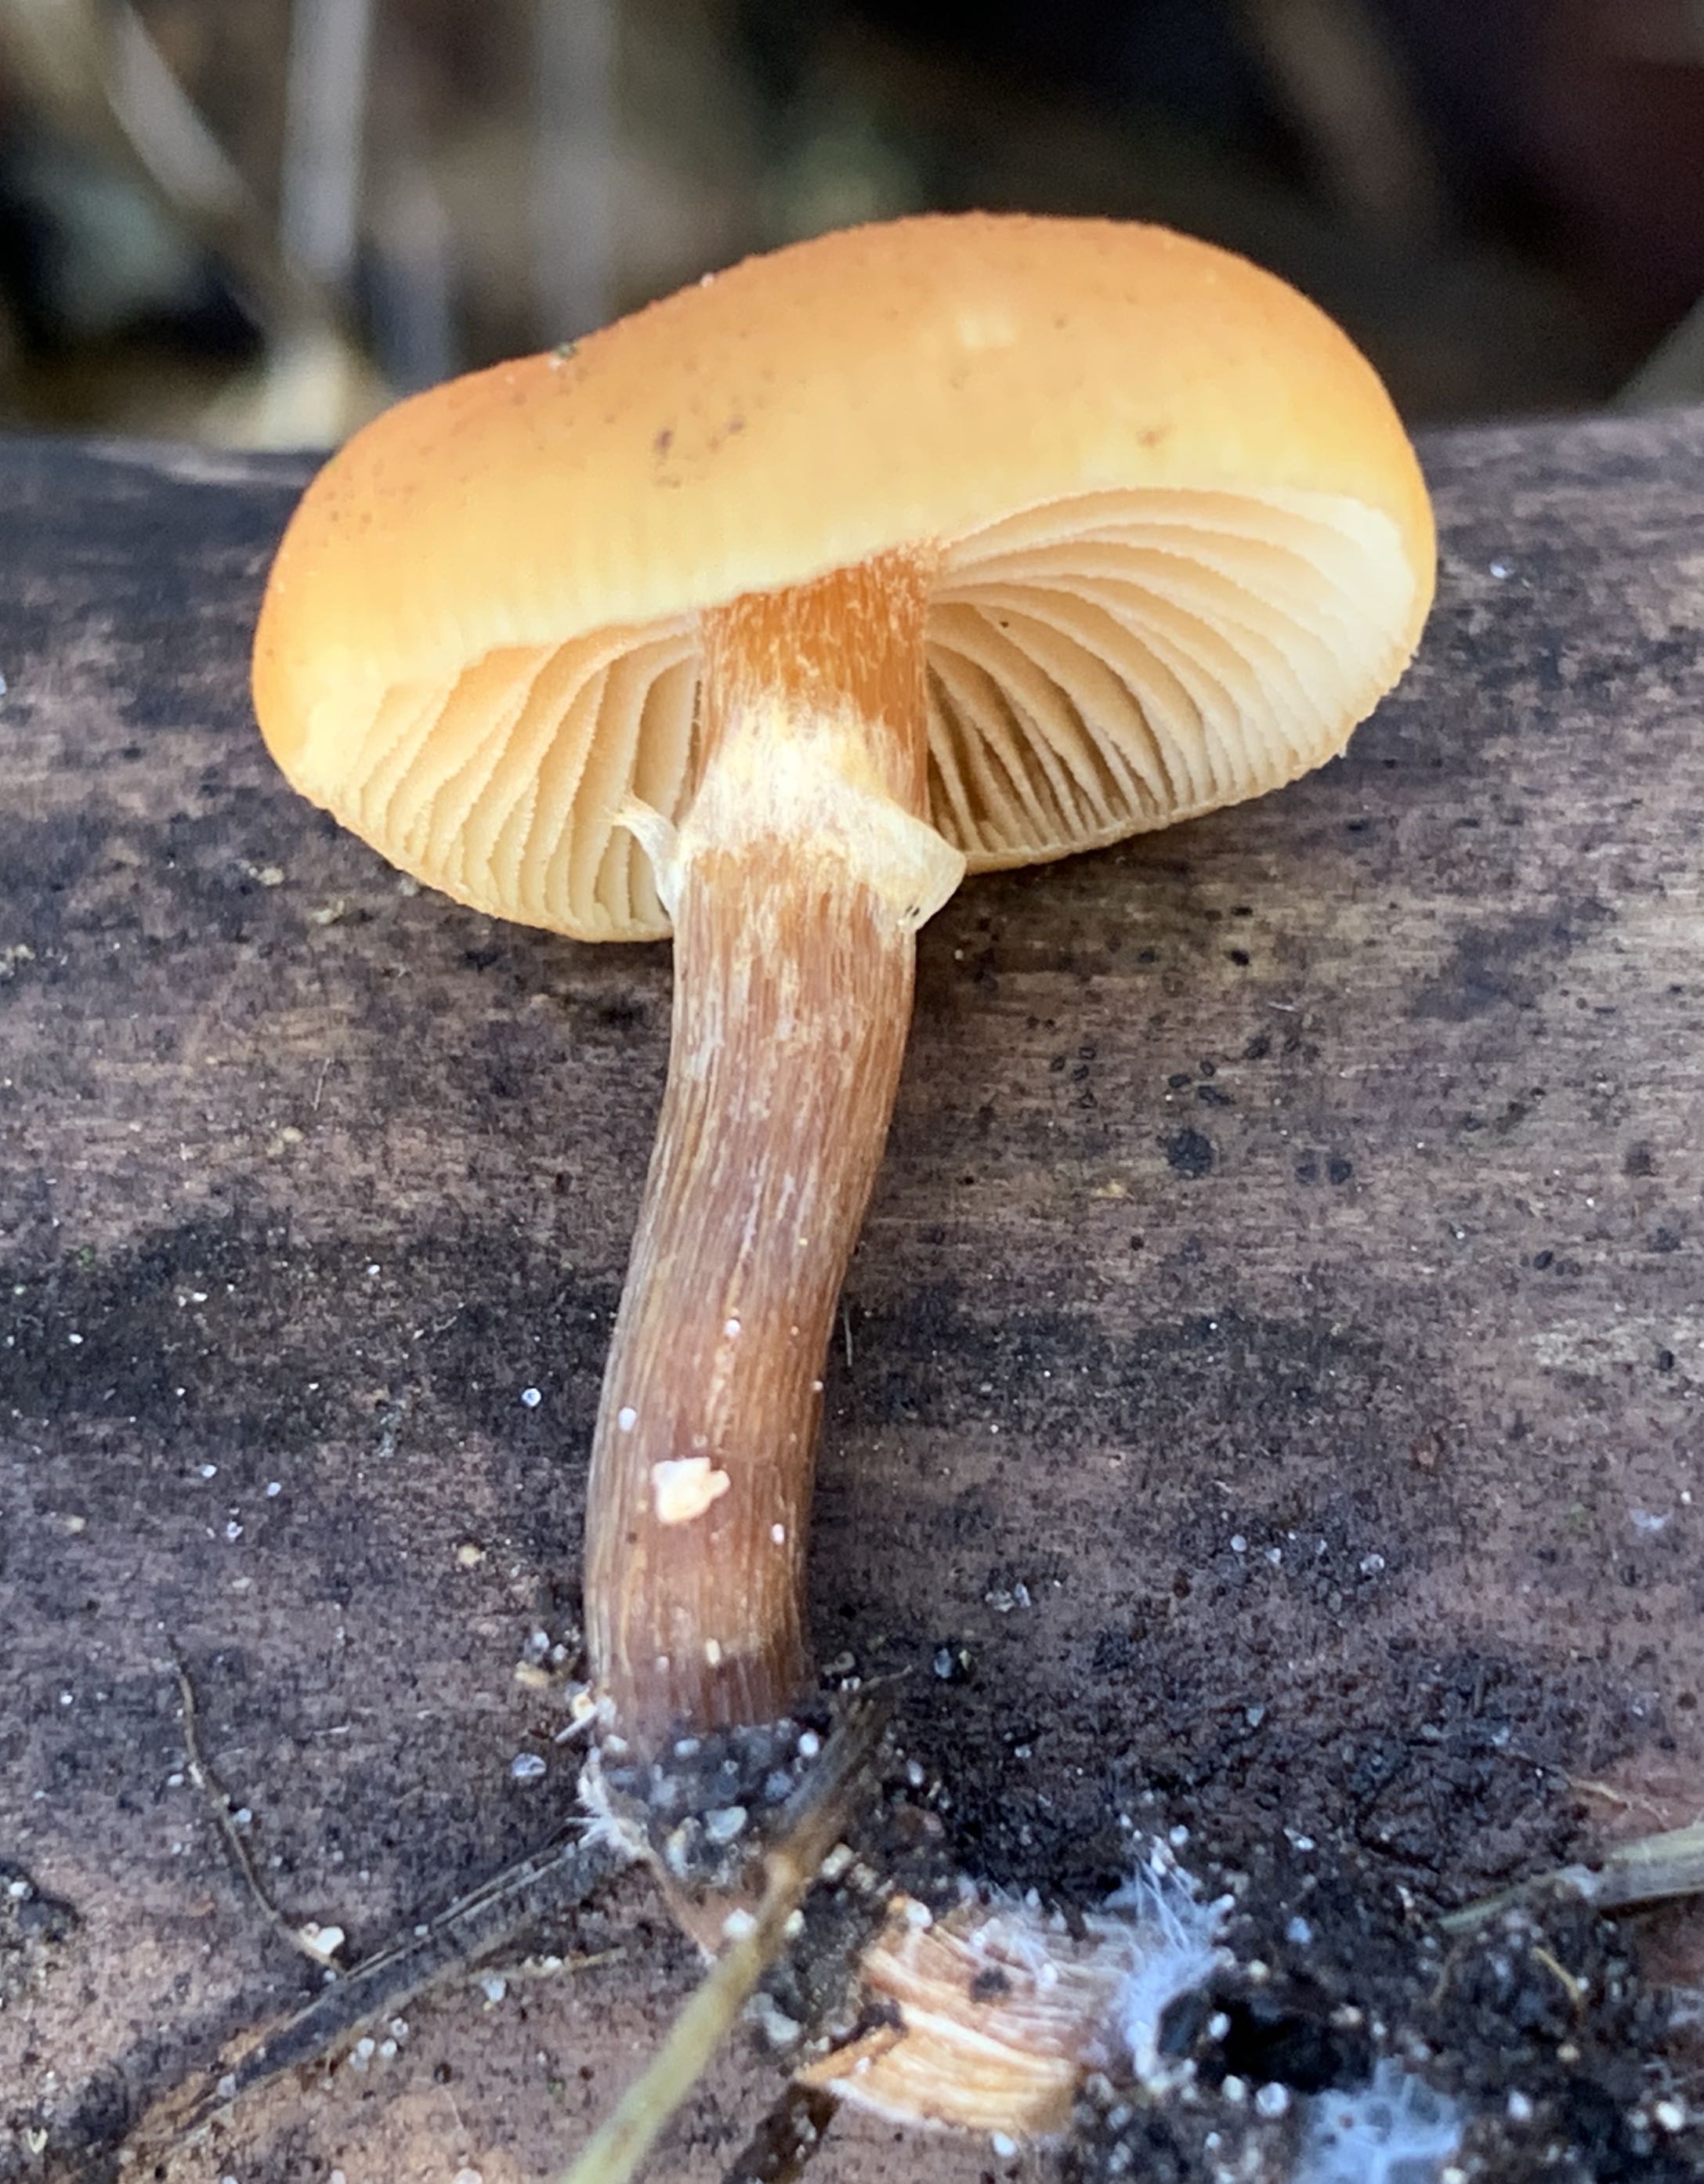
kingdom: Fungi
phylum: Basidiomycota
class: Agaricomycetes
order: Agaricales
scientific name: Agaricales
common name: champignonordenen
